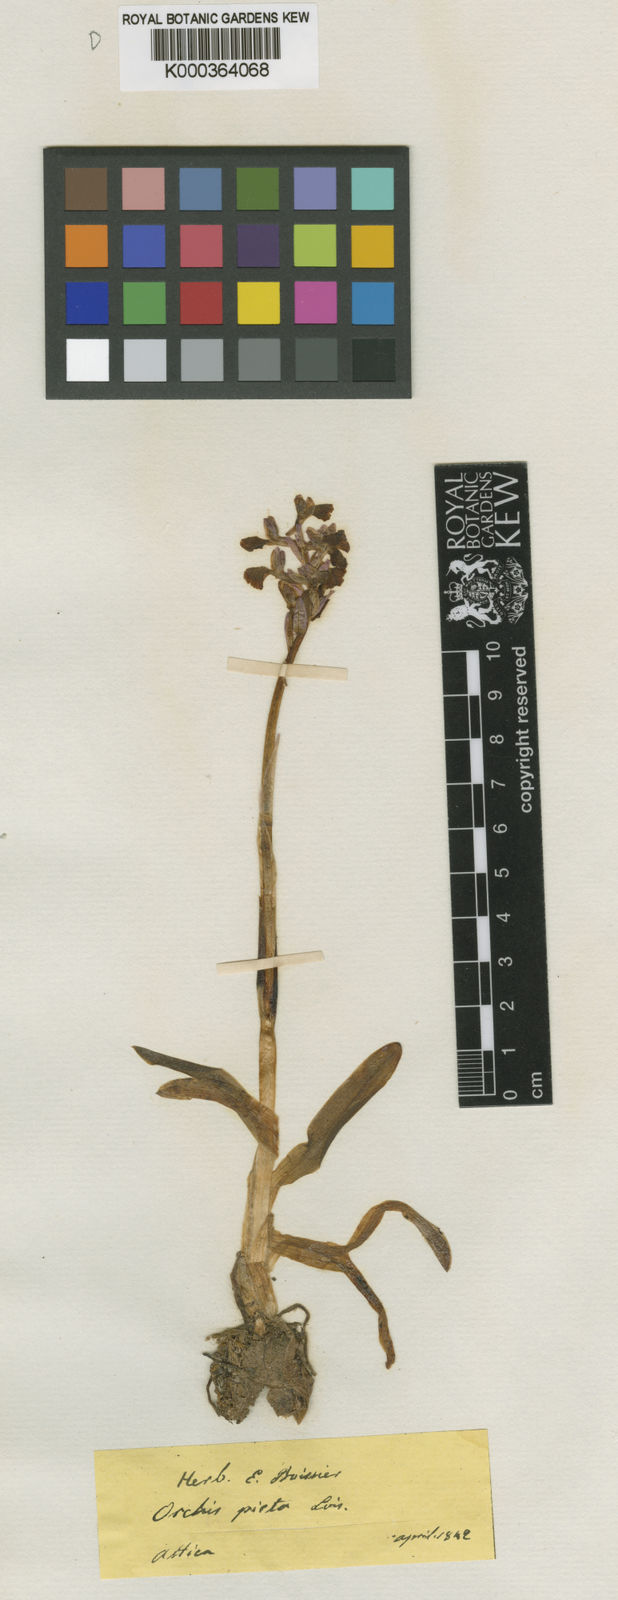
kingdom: Plantae
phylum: Tracheophyta
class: Liliopsida
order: Asparagales
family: Orchidaceae
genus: Anacamptis
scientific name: Anacamptis
